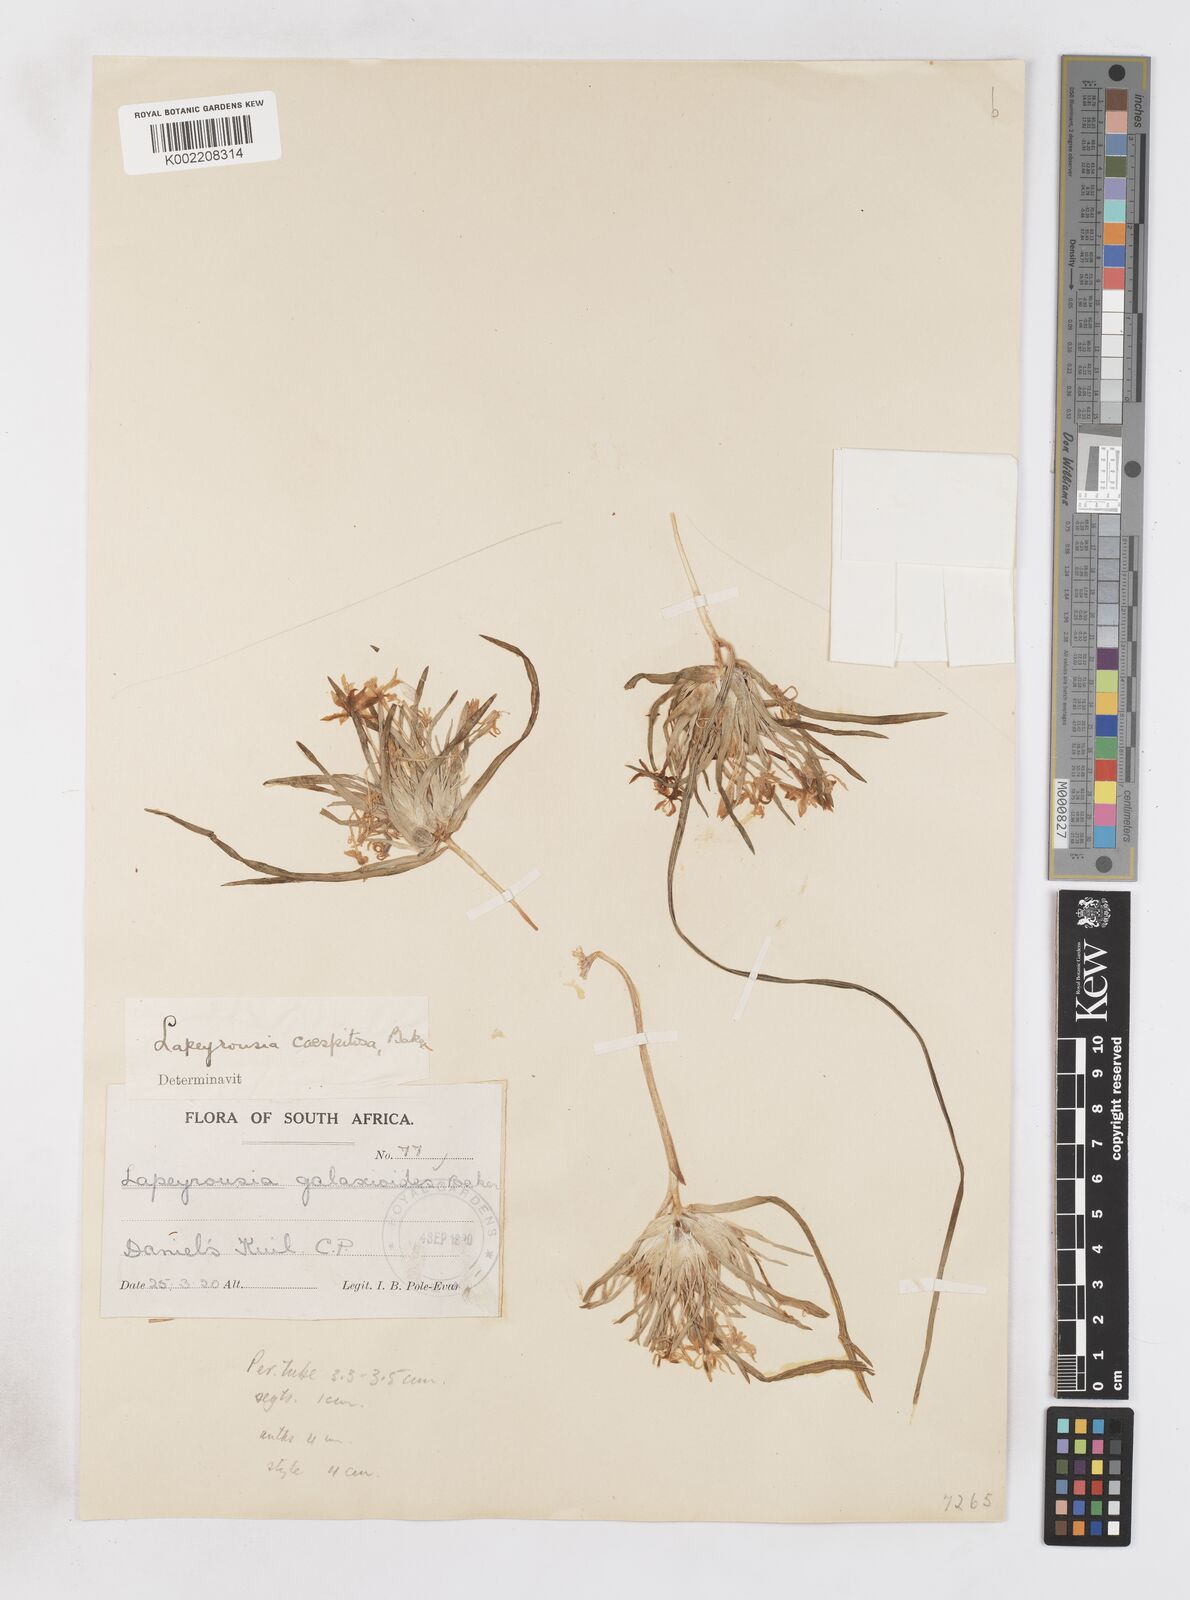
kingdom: Plantae
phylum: Tracheophyta
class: Liliopsida
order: Asparagales
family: Iridaceae
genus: Lapeirousia
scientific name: Lapeirousia kalahariensis
